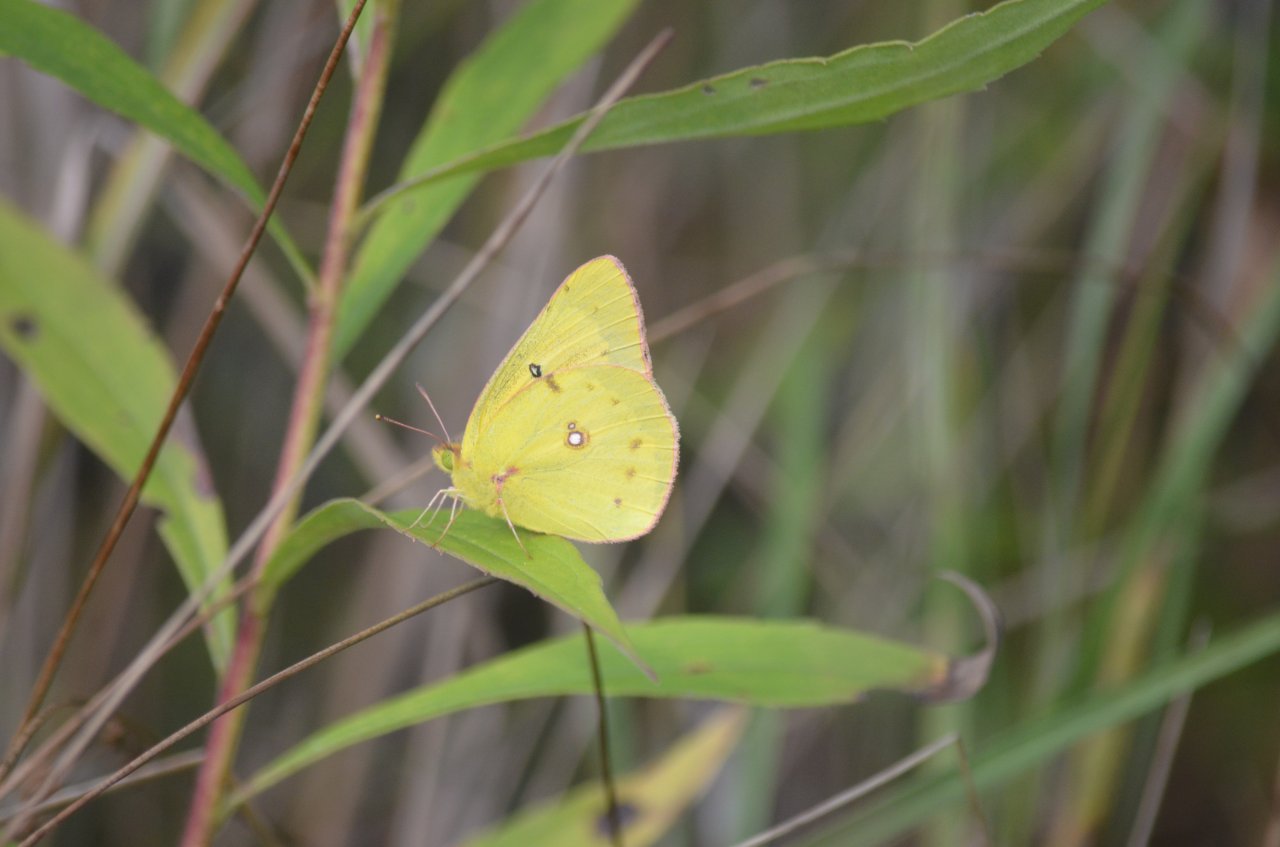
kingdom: Animalia
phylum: Arthropoda
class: Insecta
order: Lepidoptera
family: Pieridae
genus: Colias
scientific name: Colias eurytheme
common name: Orange Sulphur
